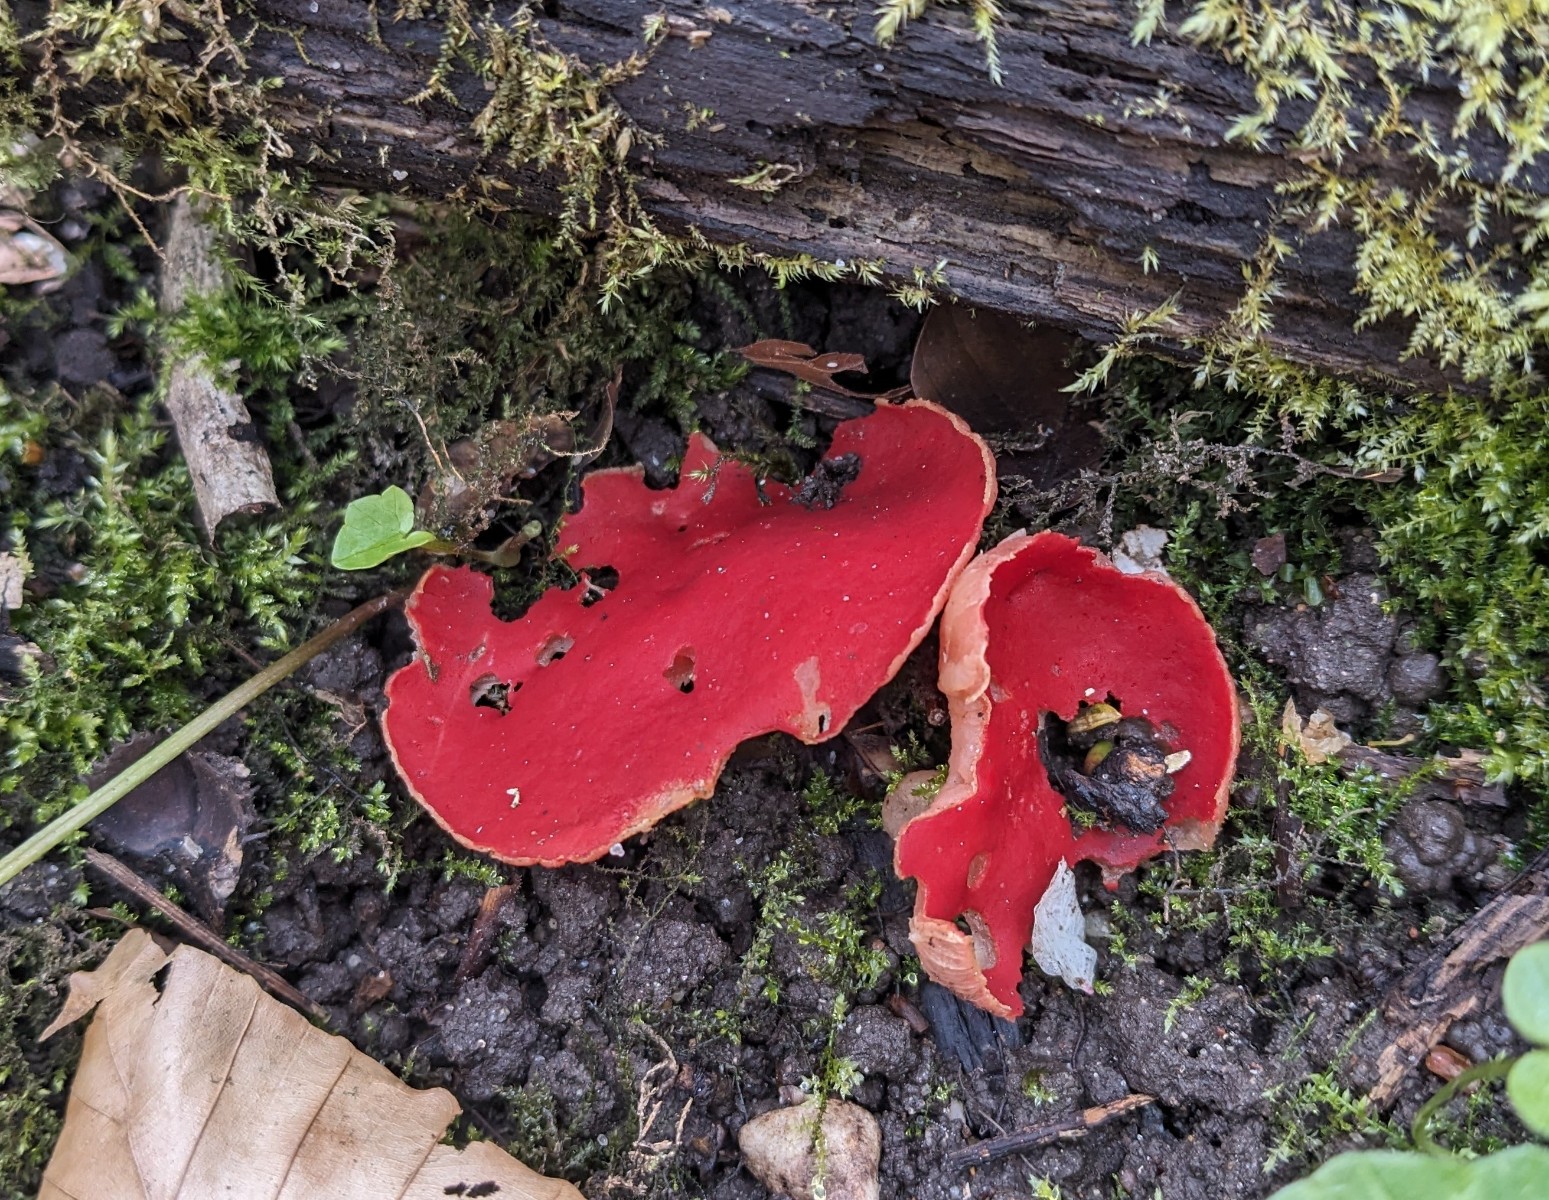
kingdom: Fungi
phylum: Ascomycota
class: Pezizomycetes
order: Pezizales
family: Sarcoscyphaceae
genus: Sarcoscypha
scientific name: Sarcoscypha austriaca
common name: krølhåret pragtbæger
